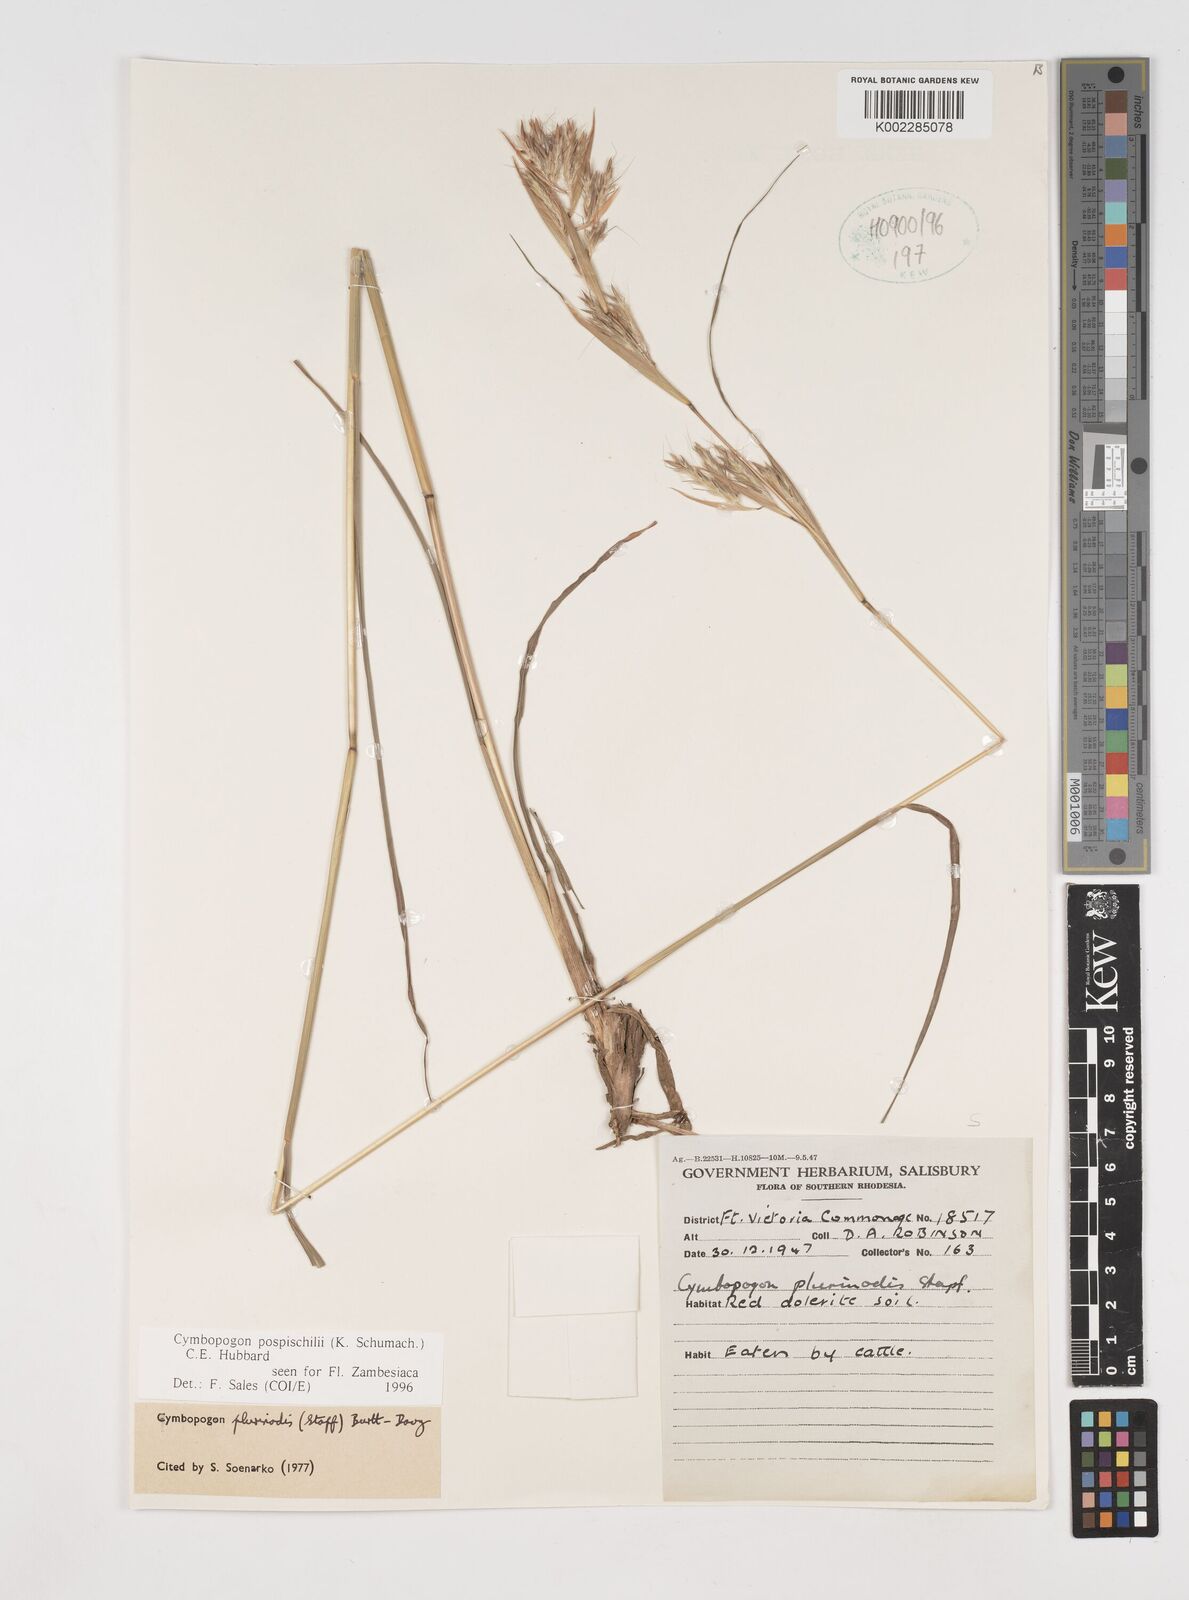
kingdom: Plantae
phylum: Tracheophyta
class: Liliopsida
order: Poales
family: Poaceae
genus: Cymbopogon
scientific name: Cymbopogon pospischilii
